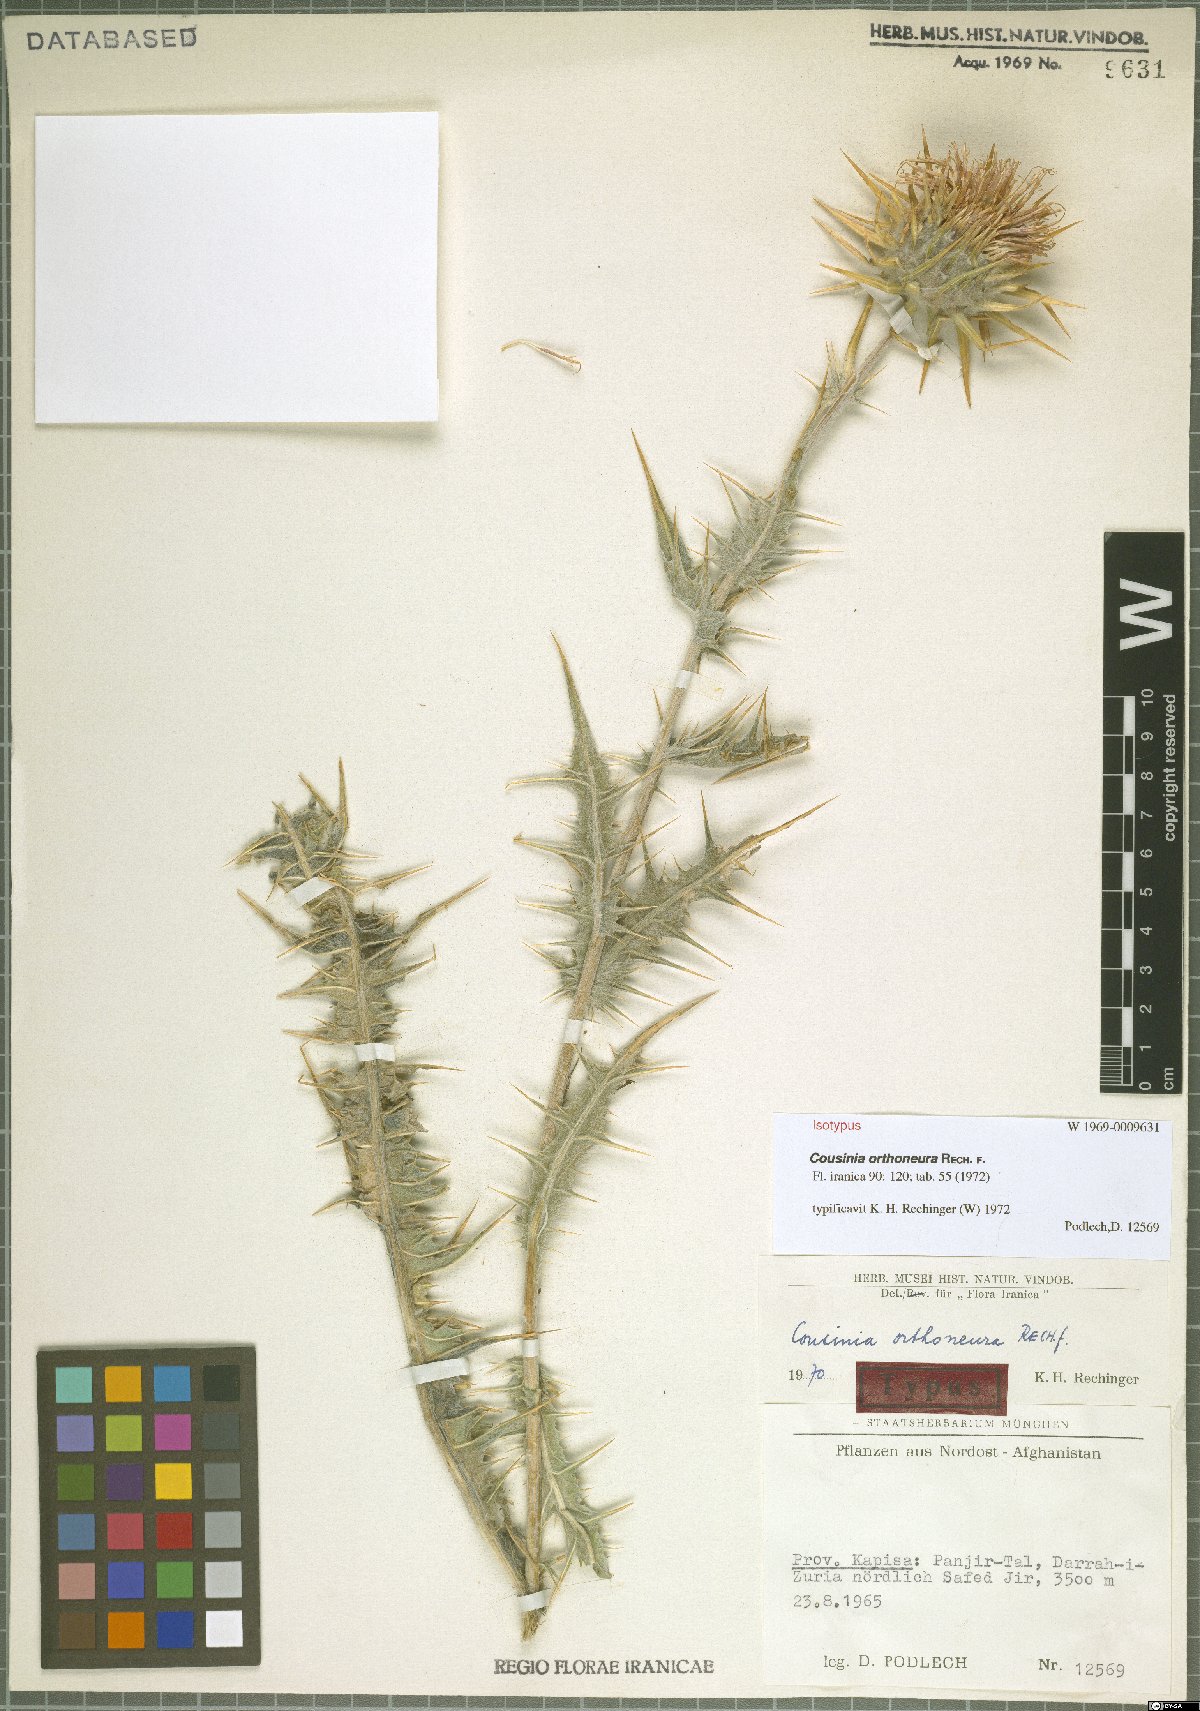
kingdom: Plantae
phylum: Tracheophyta
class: Magnoliopsida
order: Asterales
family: Asteraceae
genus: Cousinia
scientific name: Cousinia orthoneura
